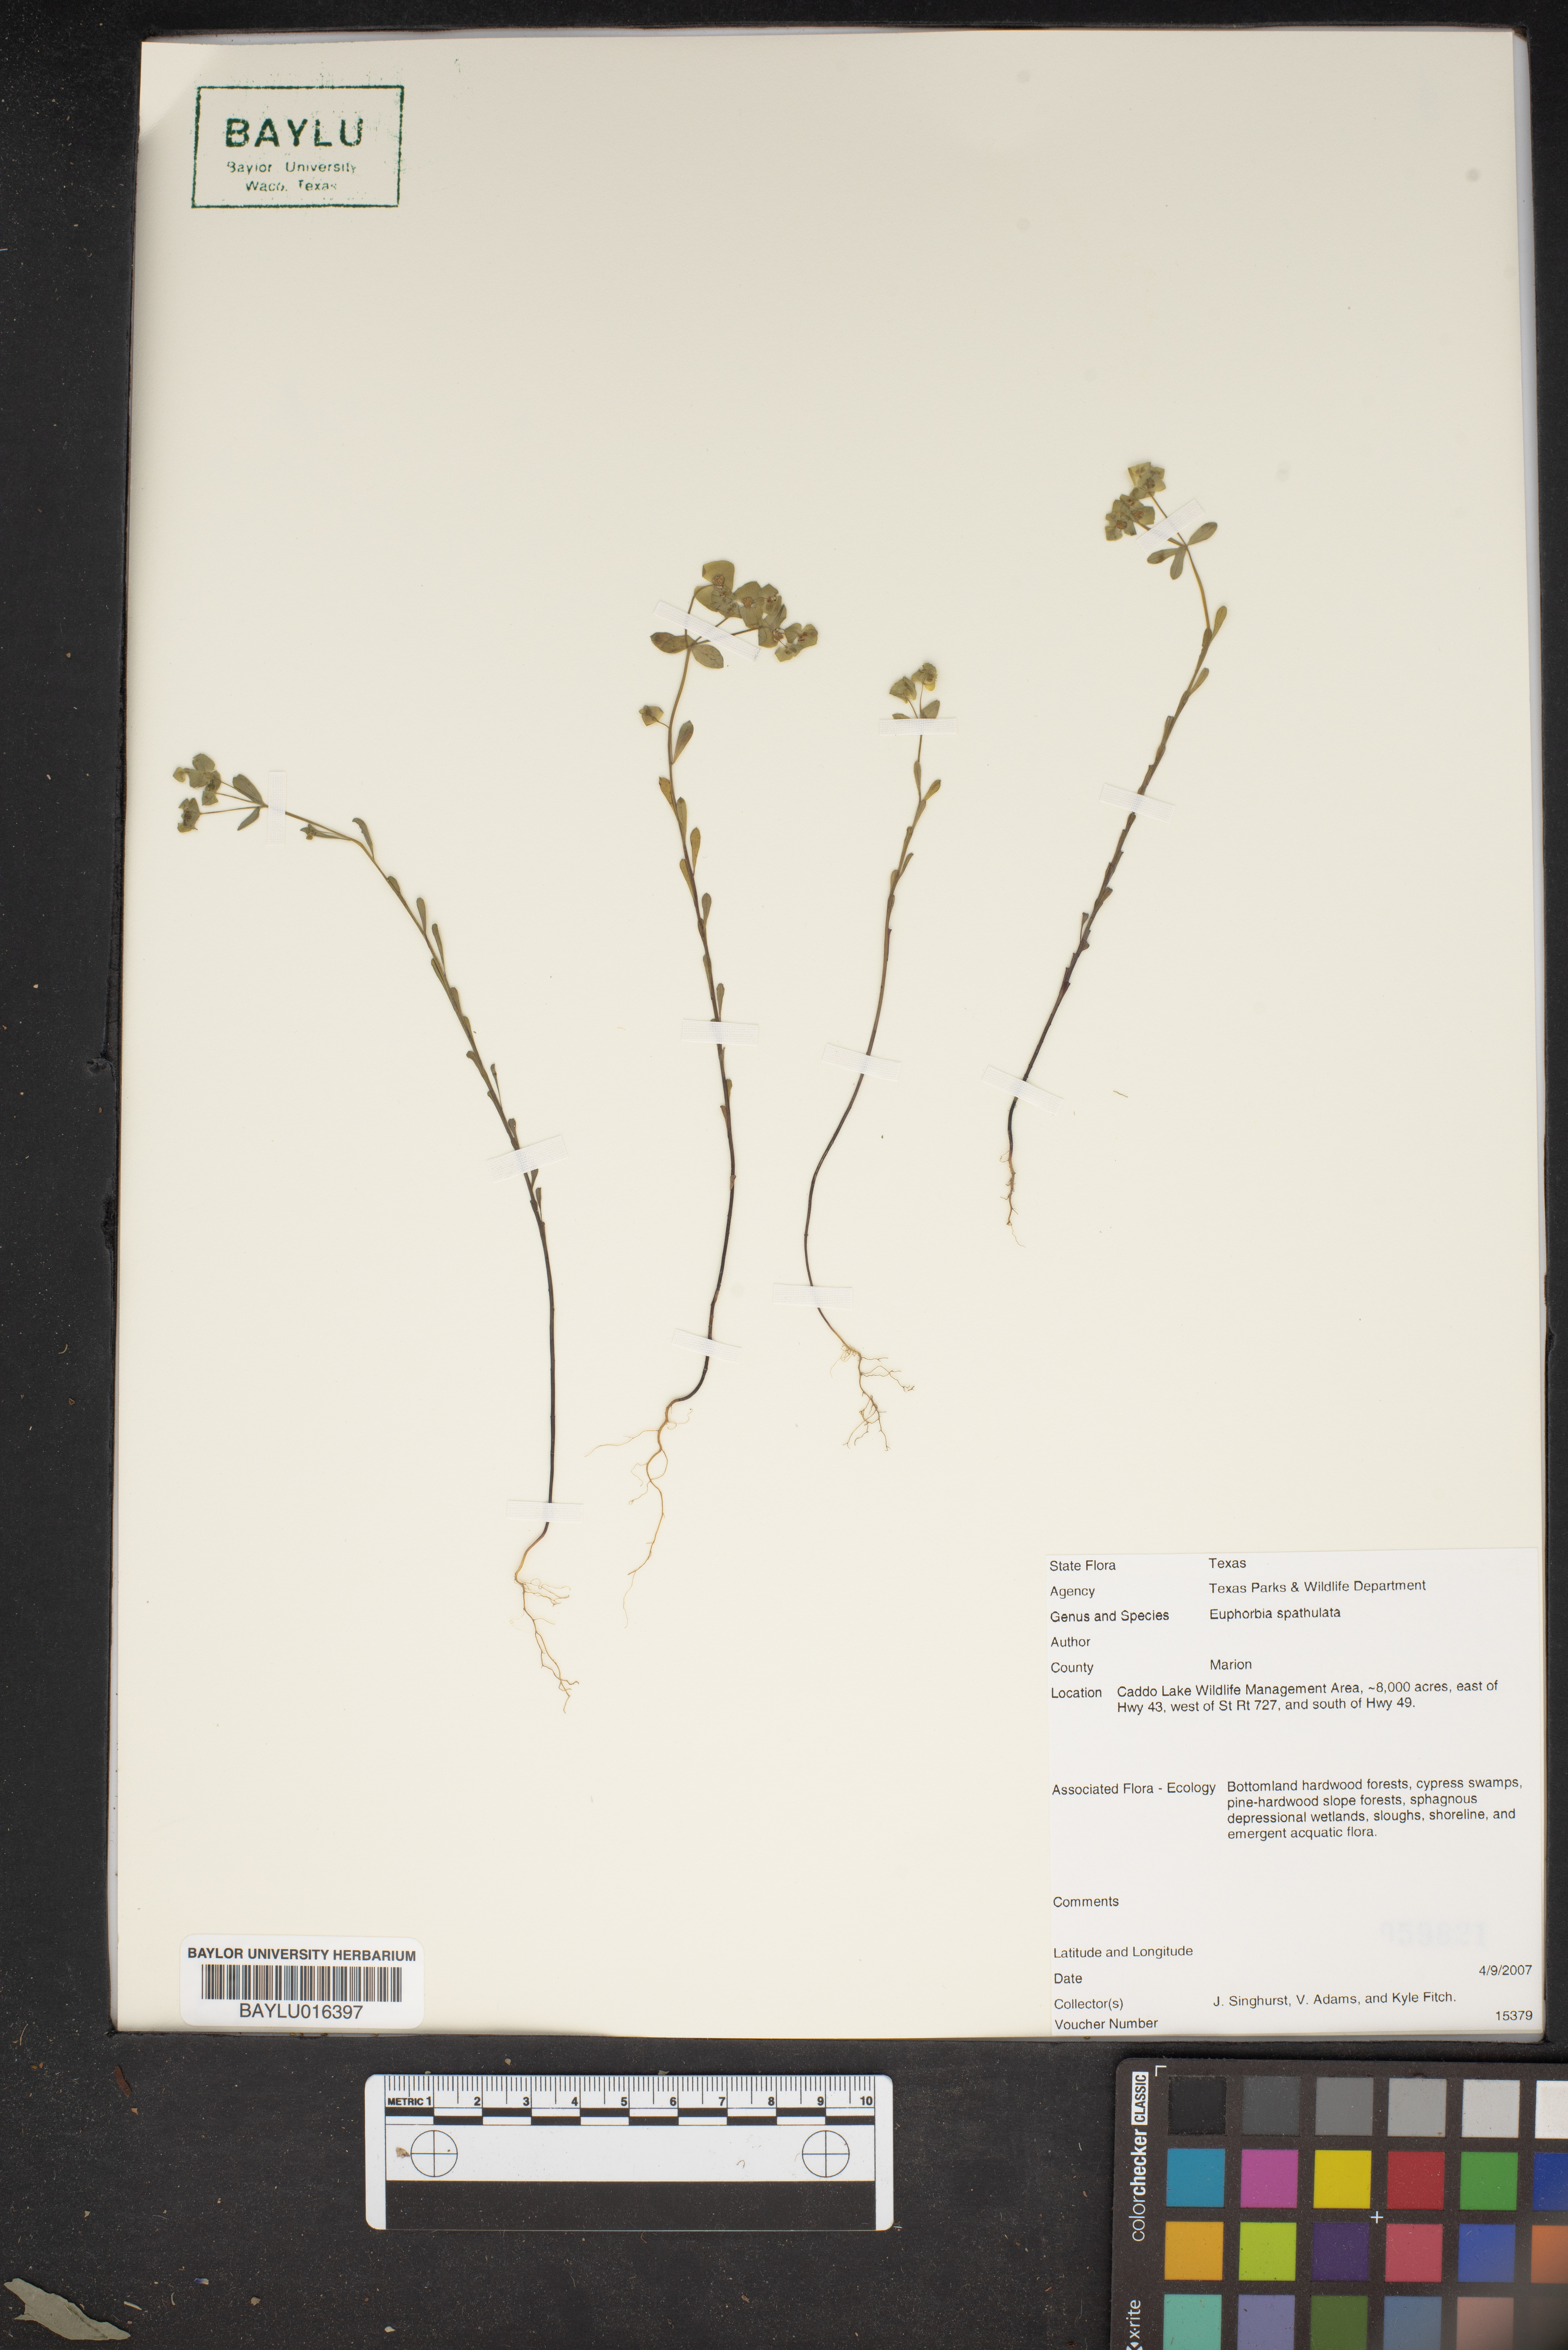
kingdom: Plantae
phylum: Tracheophyta
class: Magnoliopsida
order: Malpighiales
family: Euphorbiaceae
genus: Euphorbia
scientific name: Euphorbia spathulata
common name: Blunt spurge
